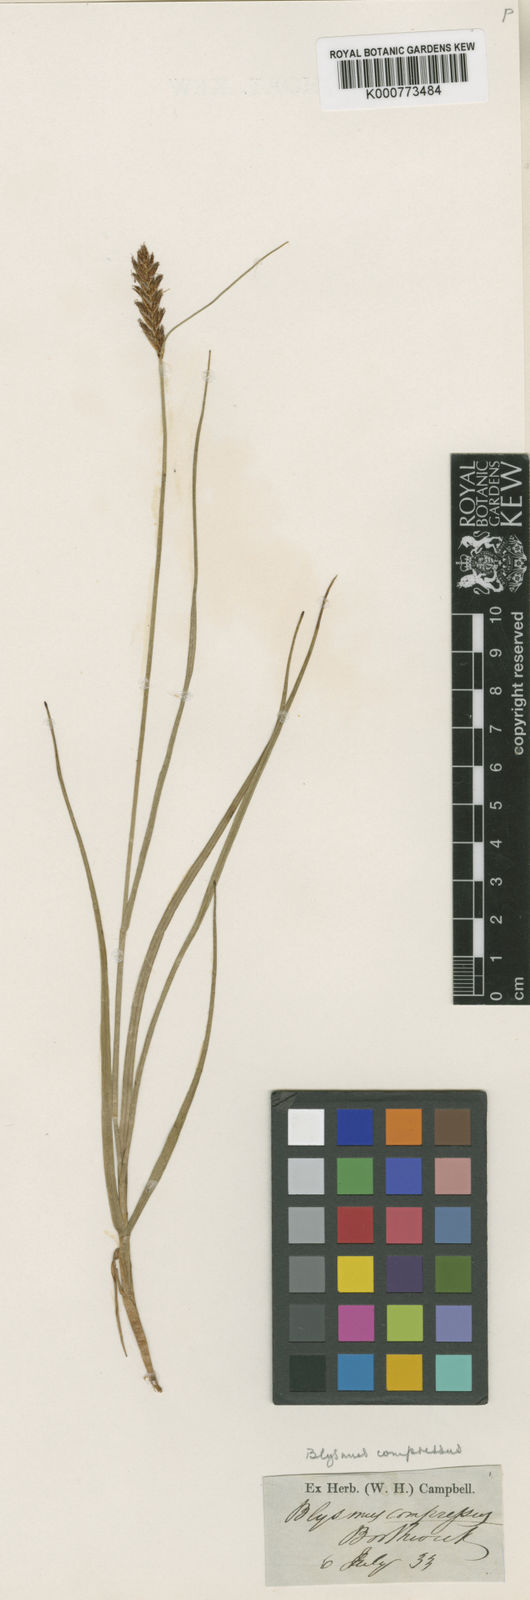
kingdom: Plantae
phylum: Tracheophyta
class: Liliopsida
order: Poales
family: Cyperaceae
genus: Blysmus
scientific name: Blysmus compressus
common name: Flat-sedge
